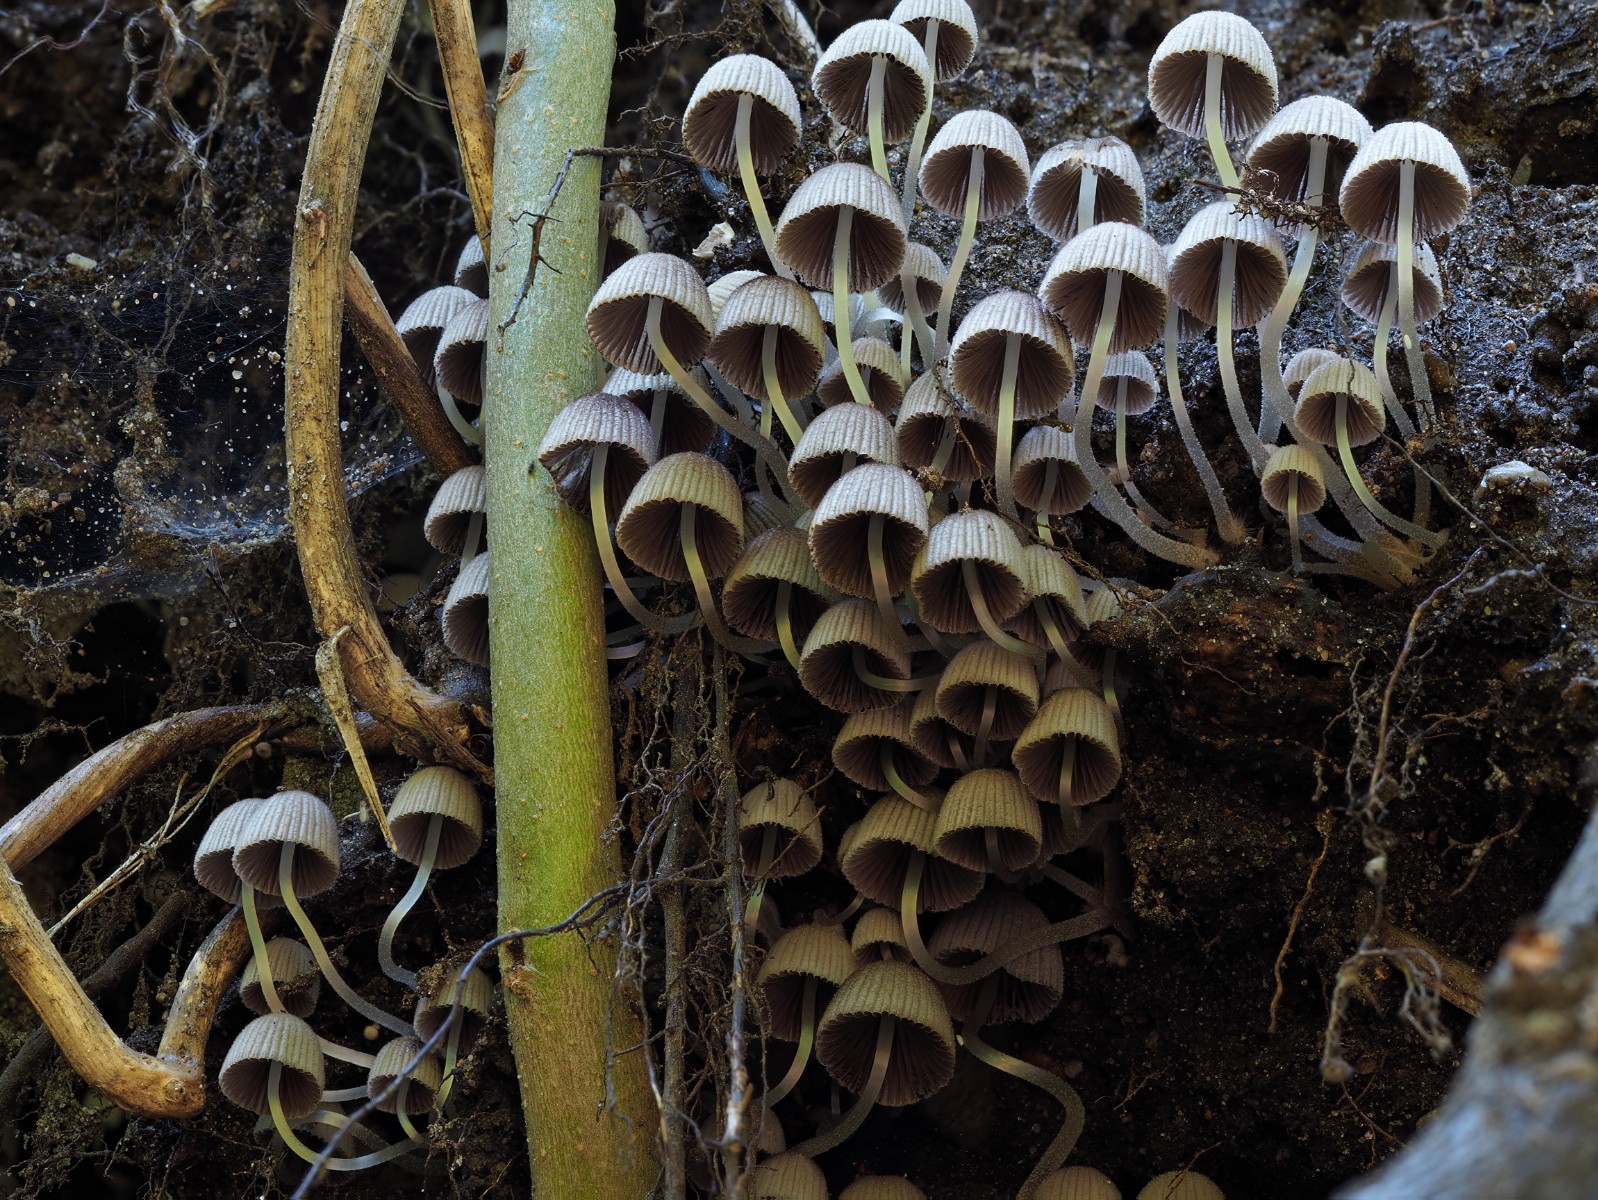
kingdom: Fungi
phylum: Basidiomycota
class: Agaricomycetes
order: Agaricales
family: Psathyrellaceae
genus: Coprinellus
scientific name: Coprinellus disseminatus
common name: bredsået blækhat
